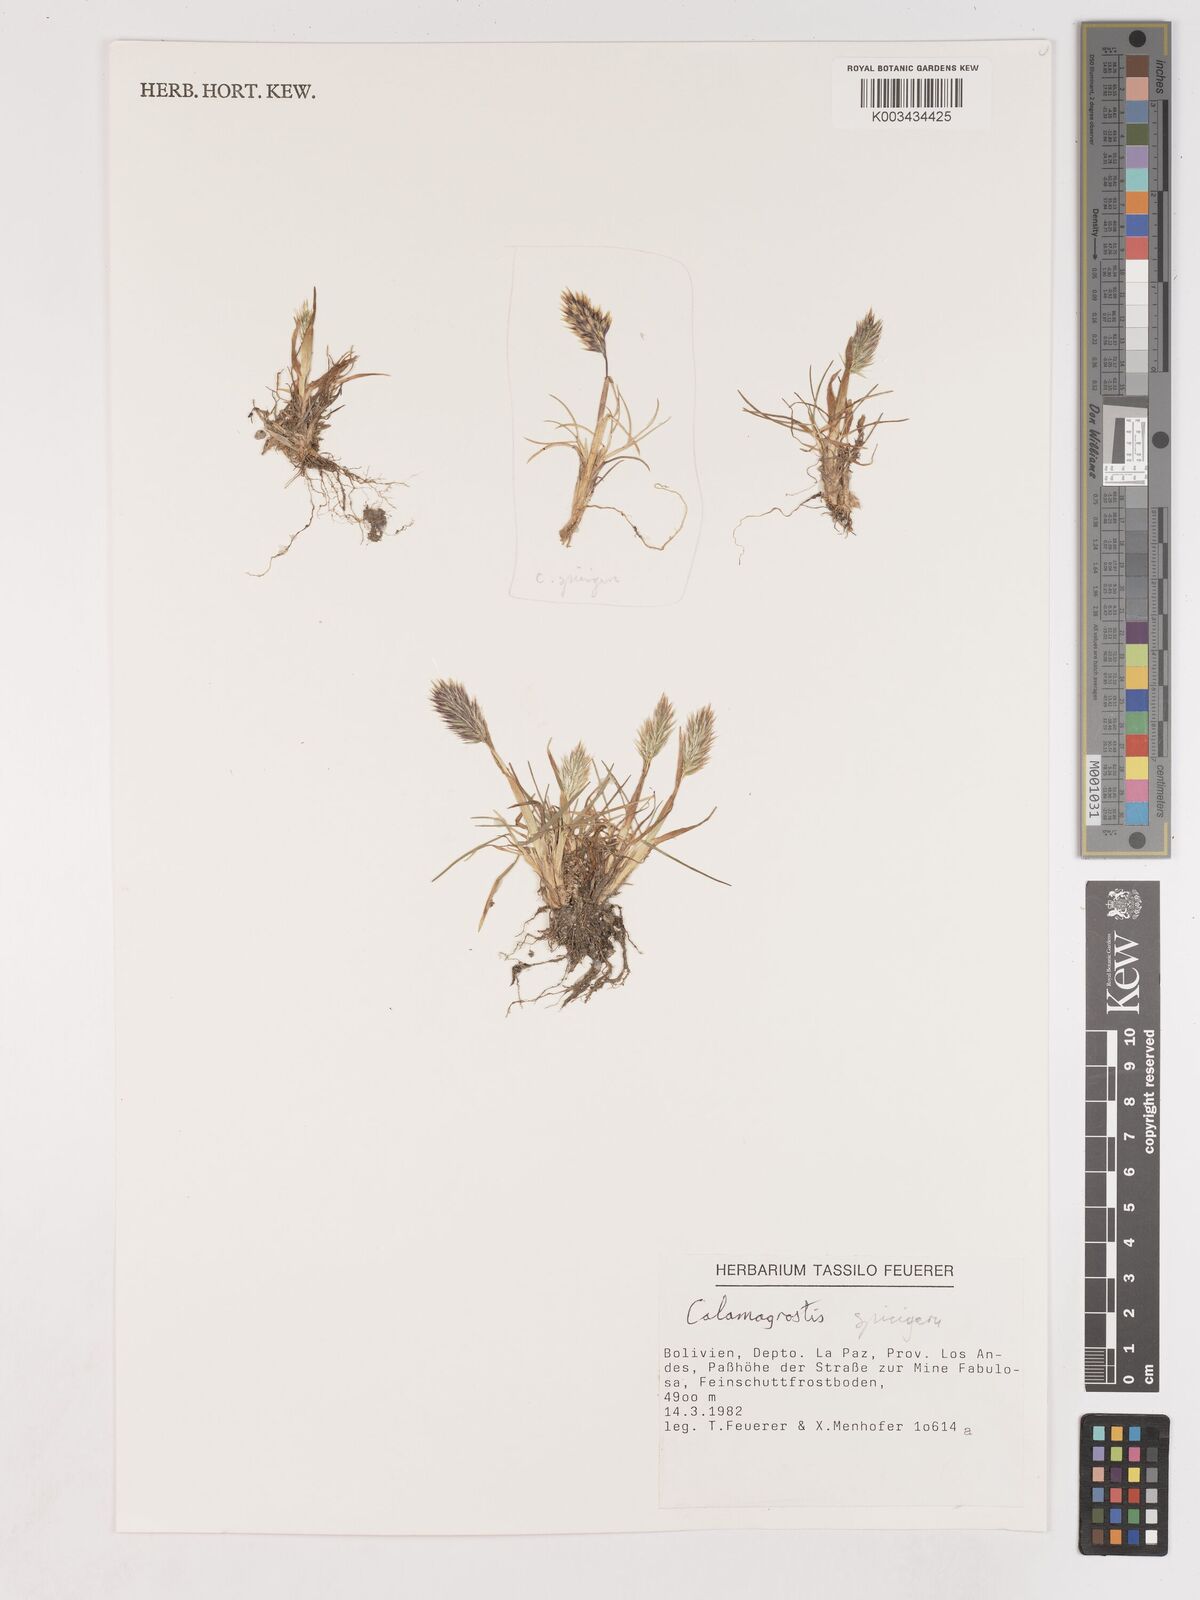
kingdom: Plantae
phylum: Tracheophyta
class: Liliopsida
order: Poales
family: Poaceae
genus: Cinnagrostis
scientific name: Cinnagrostis spicigera
